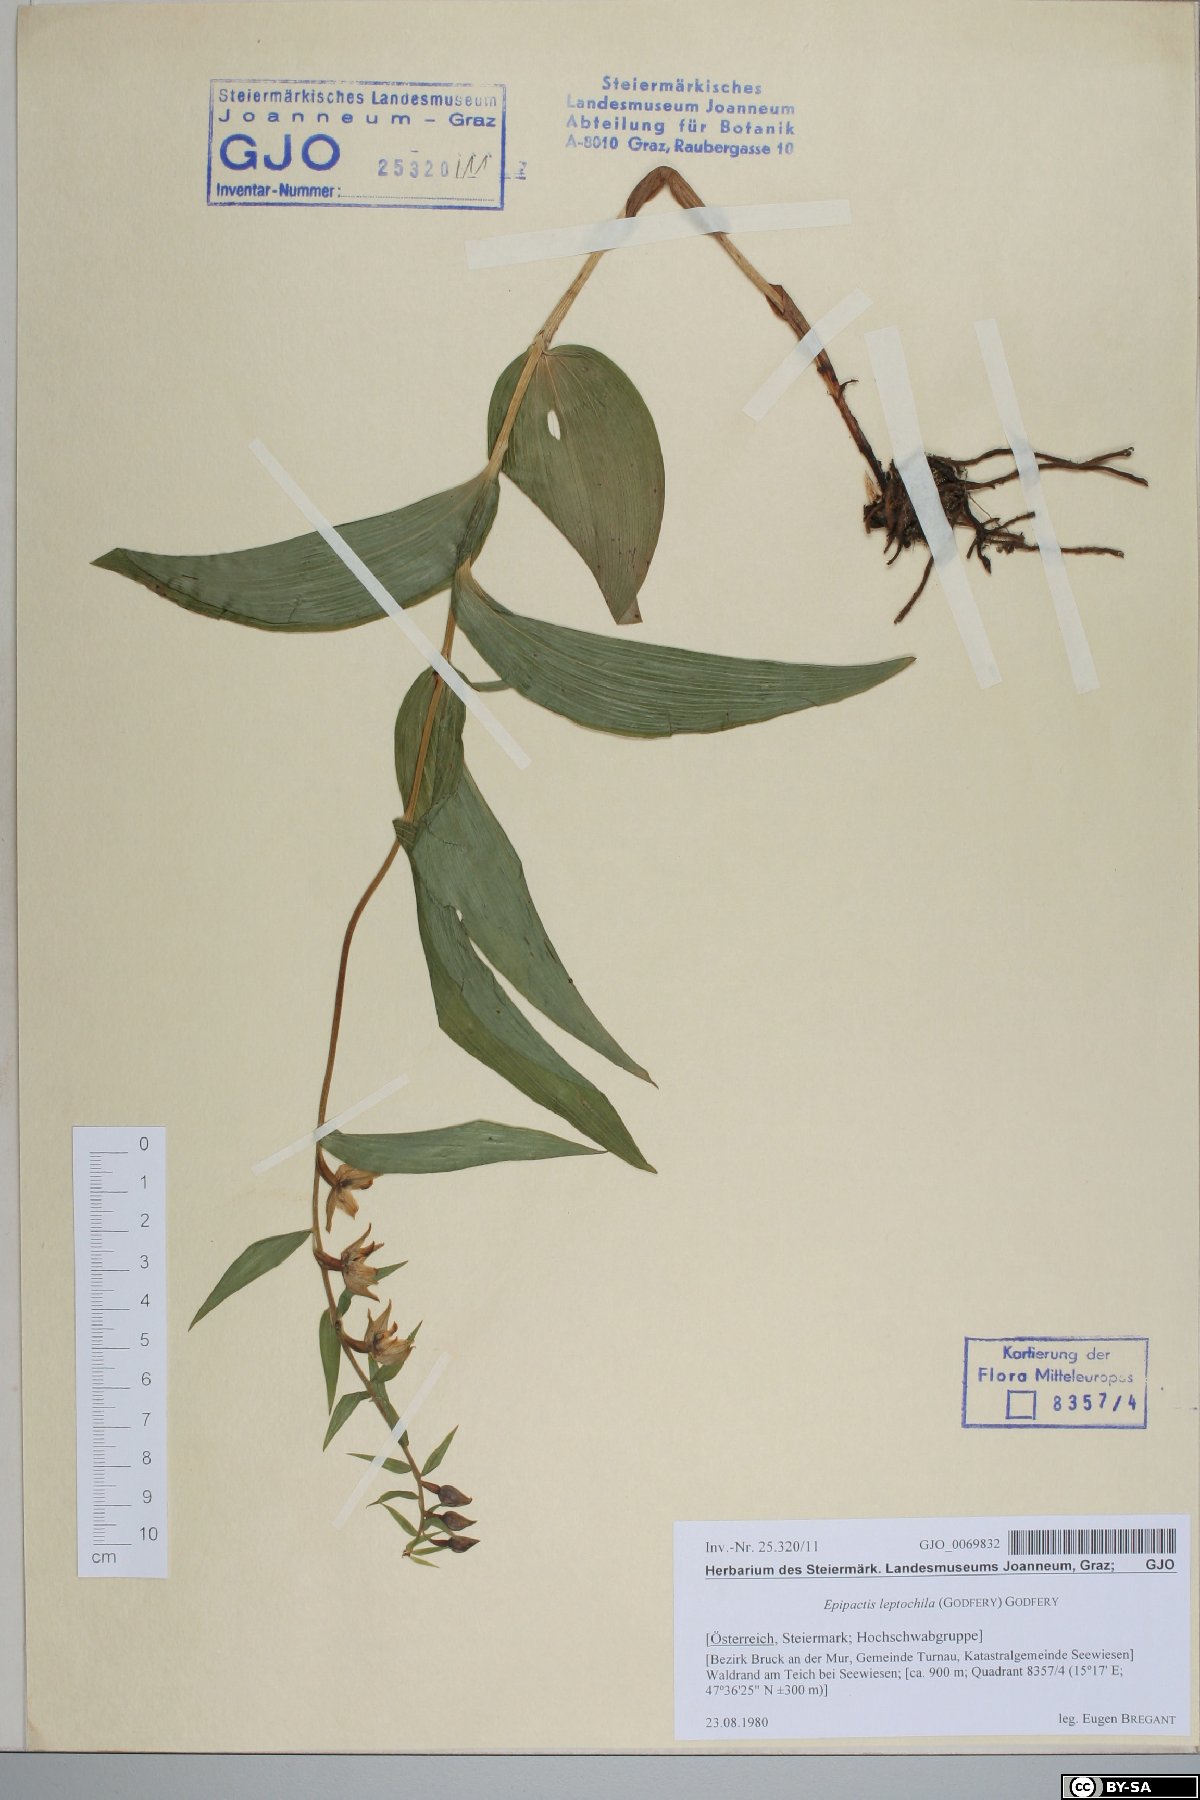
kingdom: Plantae
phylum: Tracheophyta
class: Liliopsida
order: Asparagales
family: Orchidaceae
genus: Epipactis
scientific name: Epipactis leptochila
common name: Narrow-lipped helleborine
